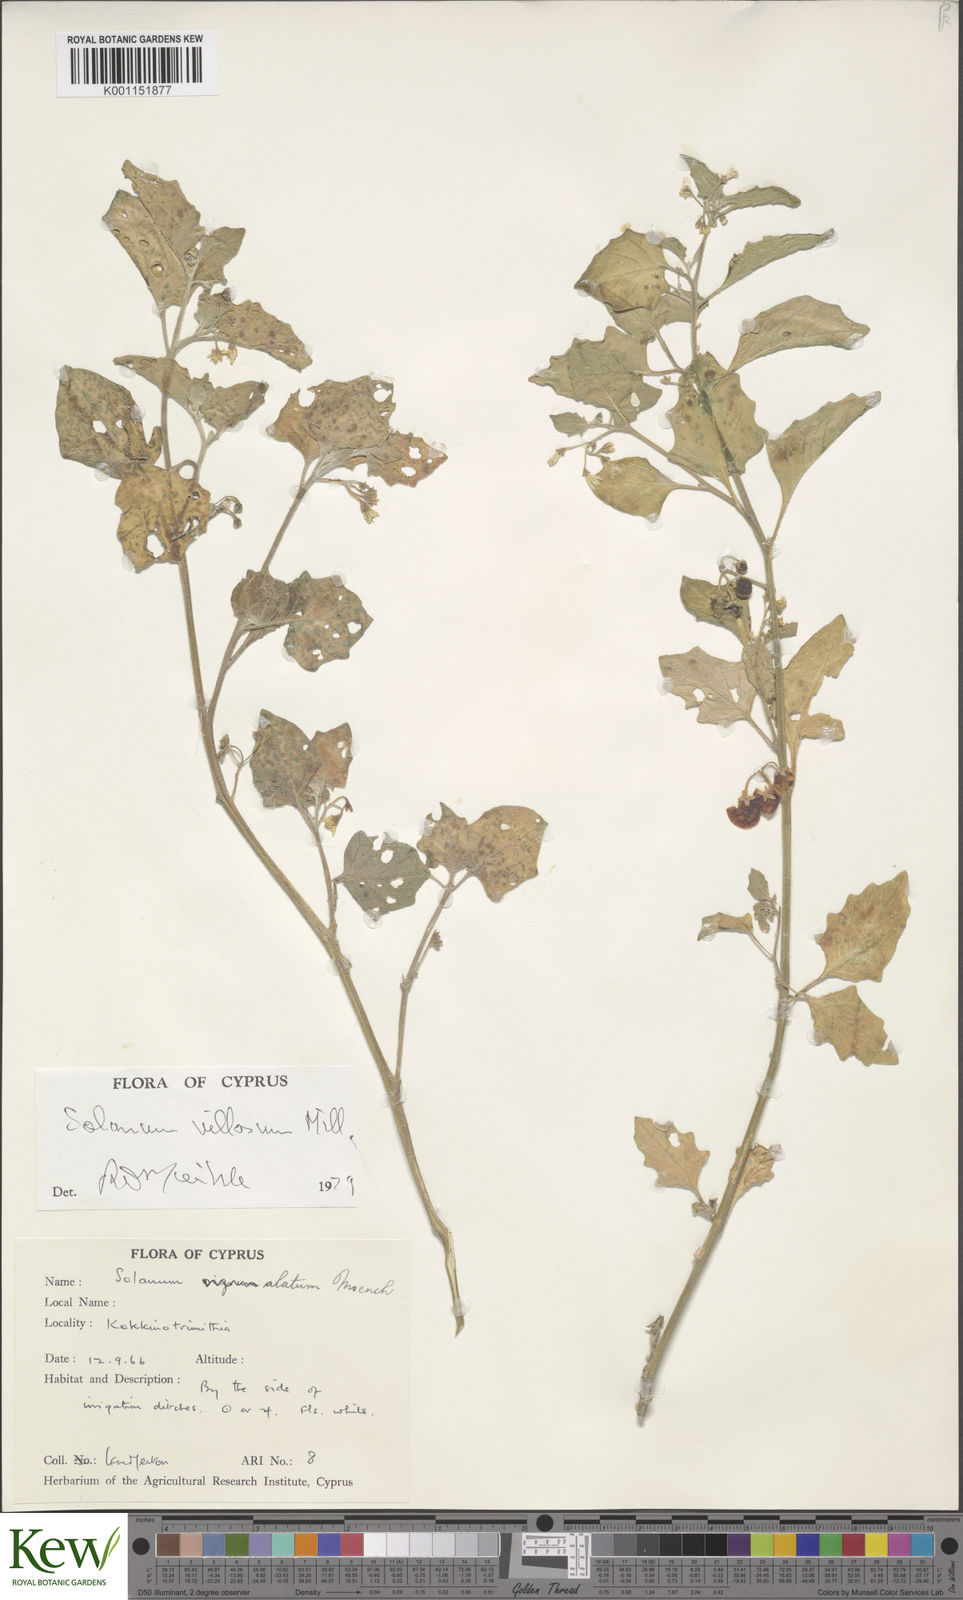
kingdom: Plantae
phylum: Tracheophyta
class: Magnoliopsida
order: Solanales
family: Solanaceae
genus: Solanum
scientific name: Solanum villosum
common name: Red nightshade
